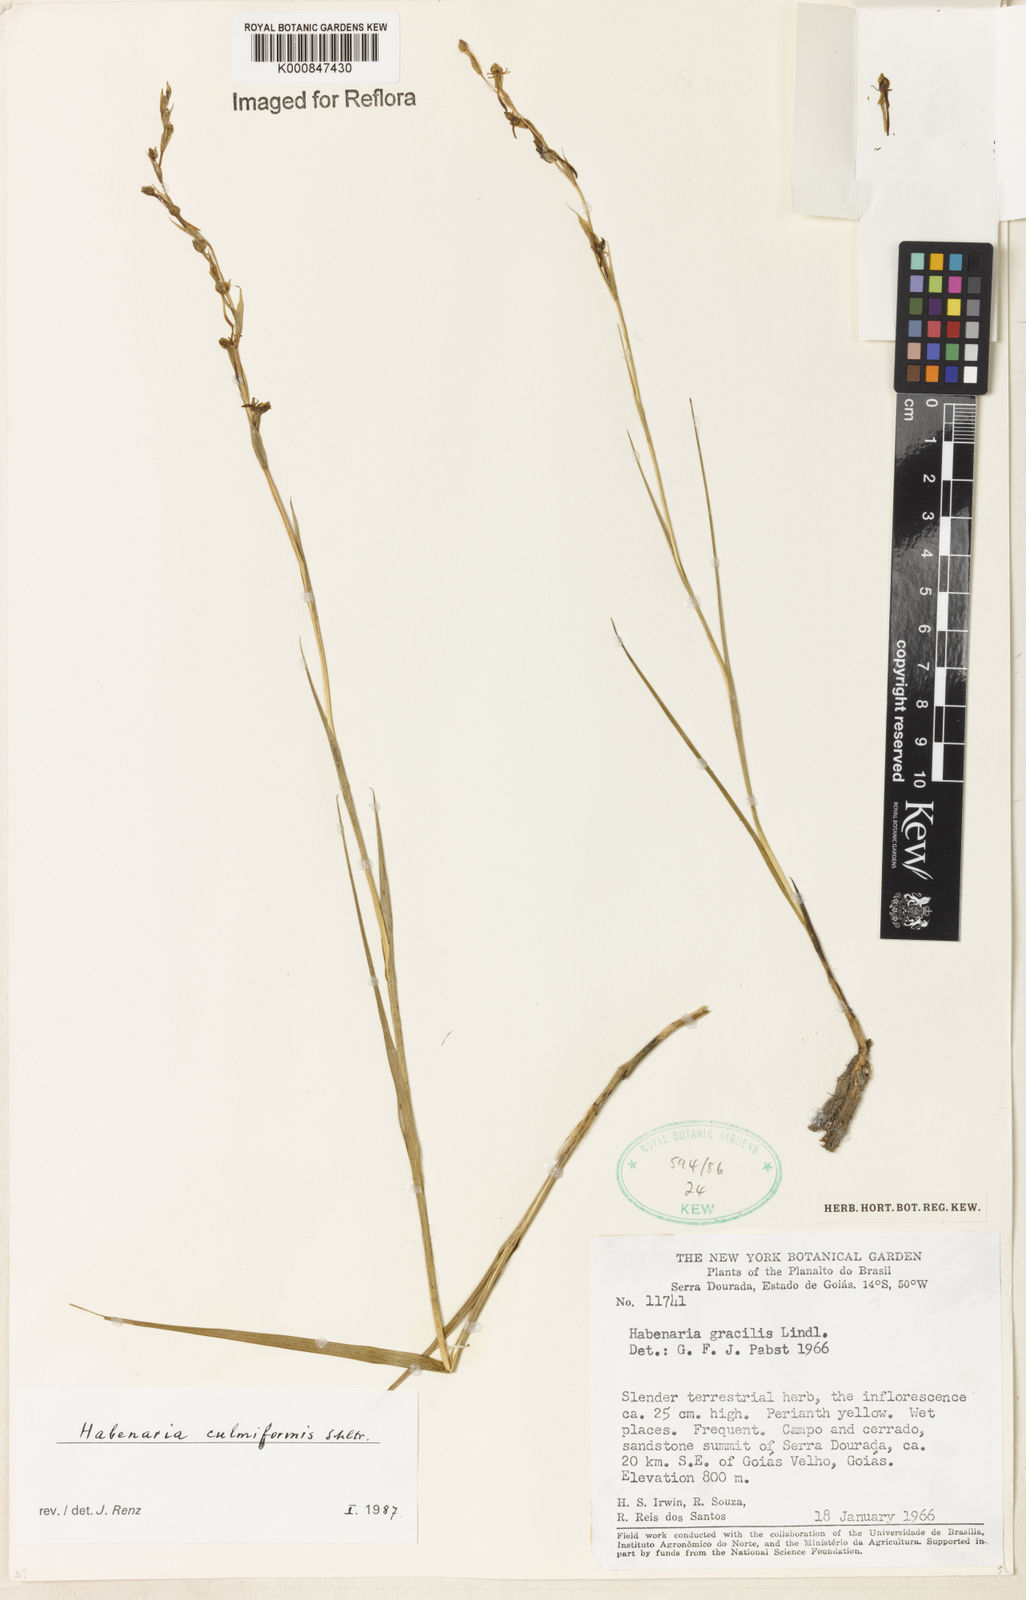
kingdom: Plantae
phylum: Tracheophyta
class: Liliopsida
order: Asparagales
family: Orchidaceae
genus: Habenaria
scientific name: Habenaria culmiformis
